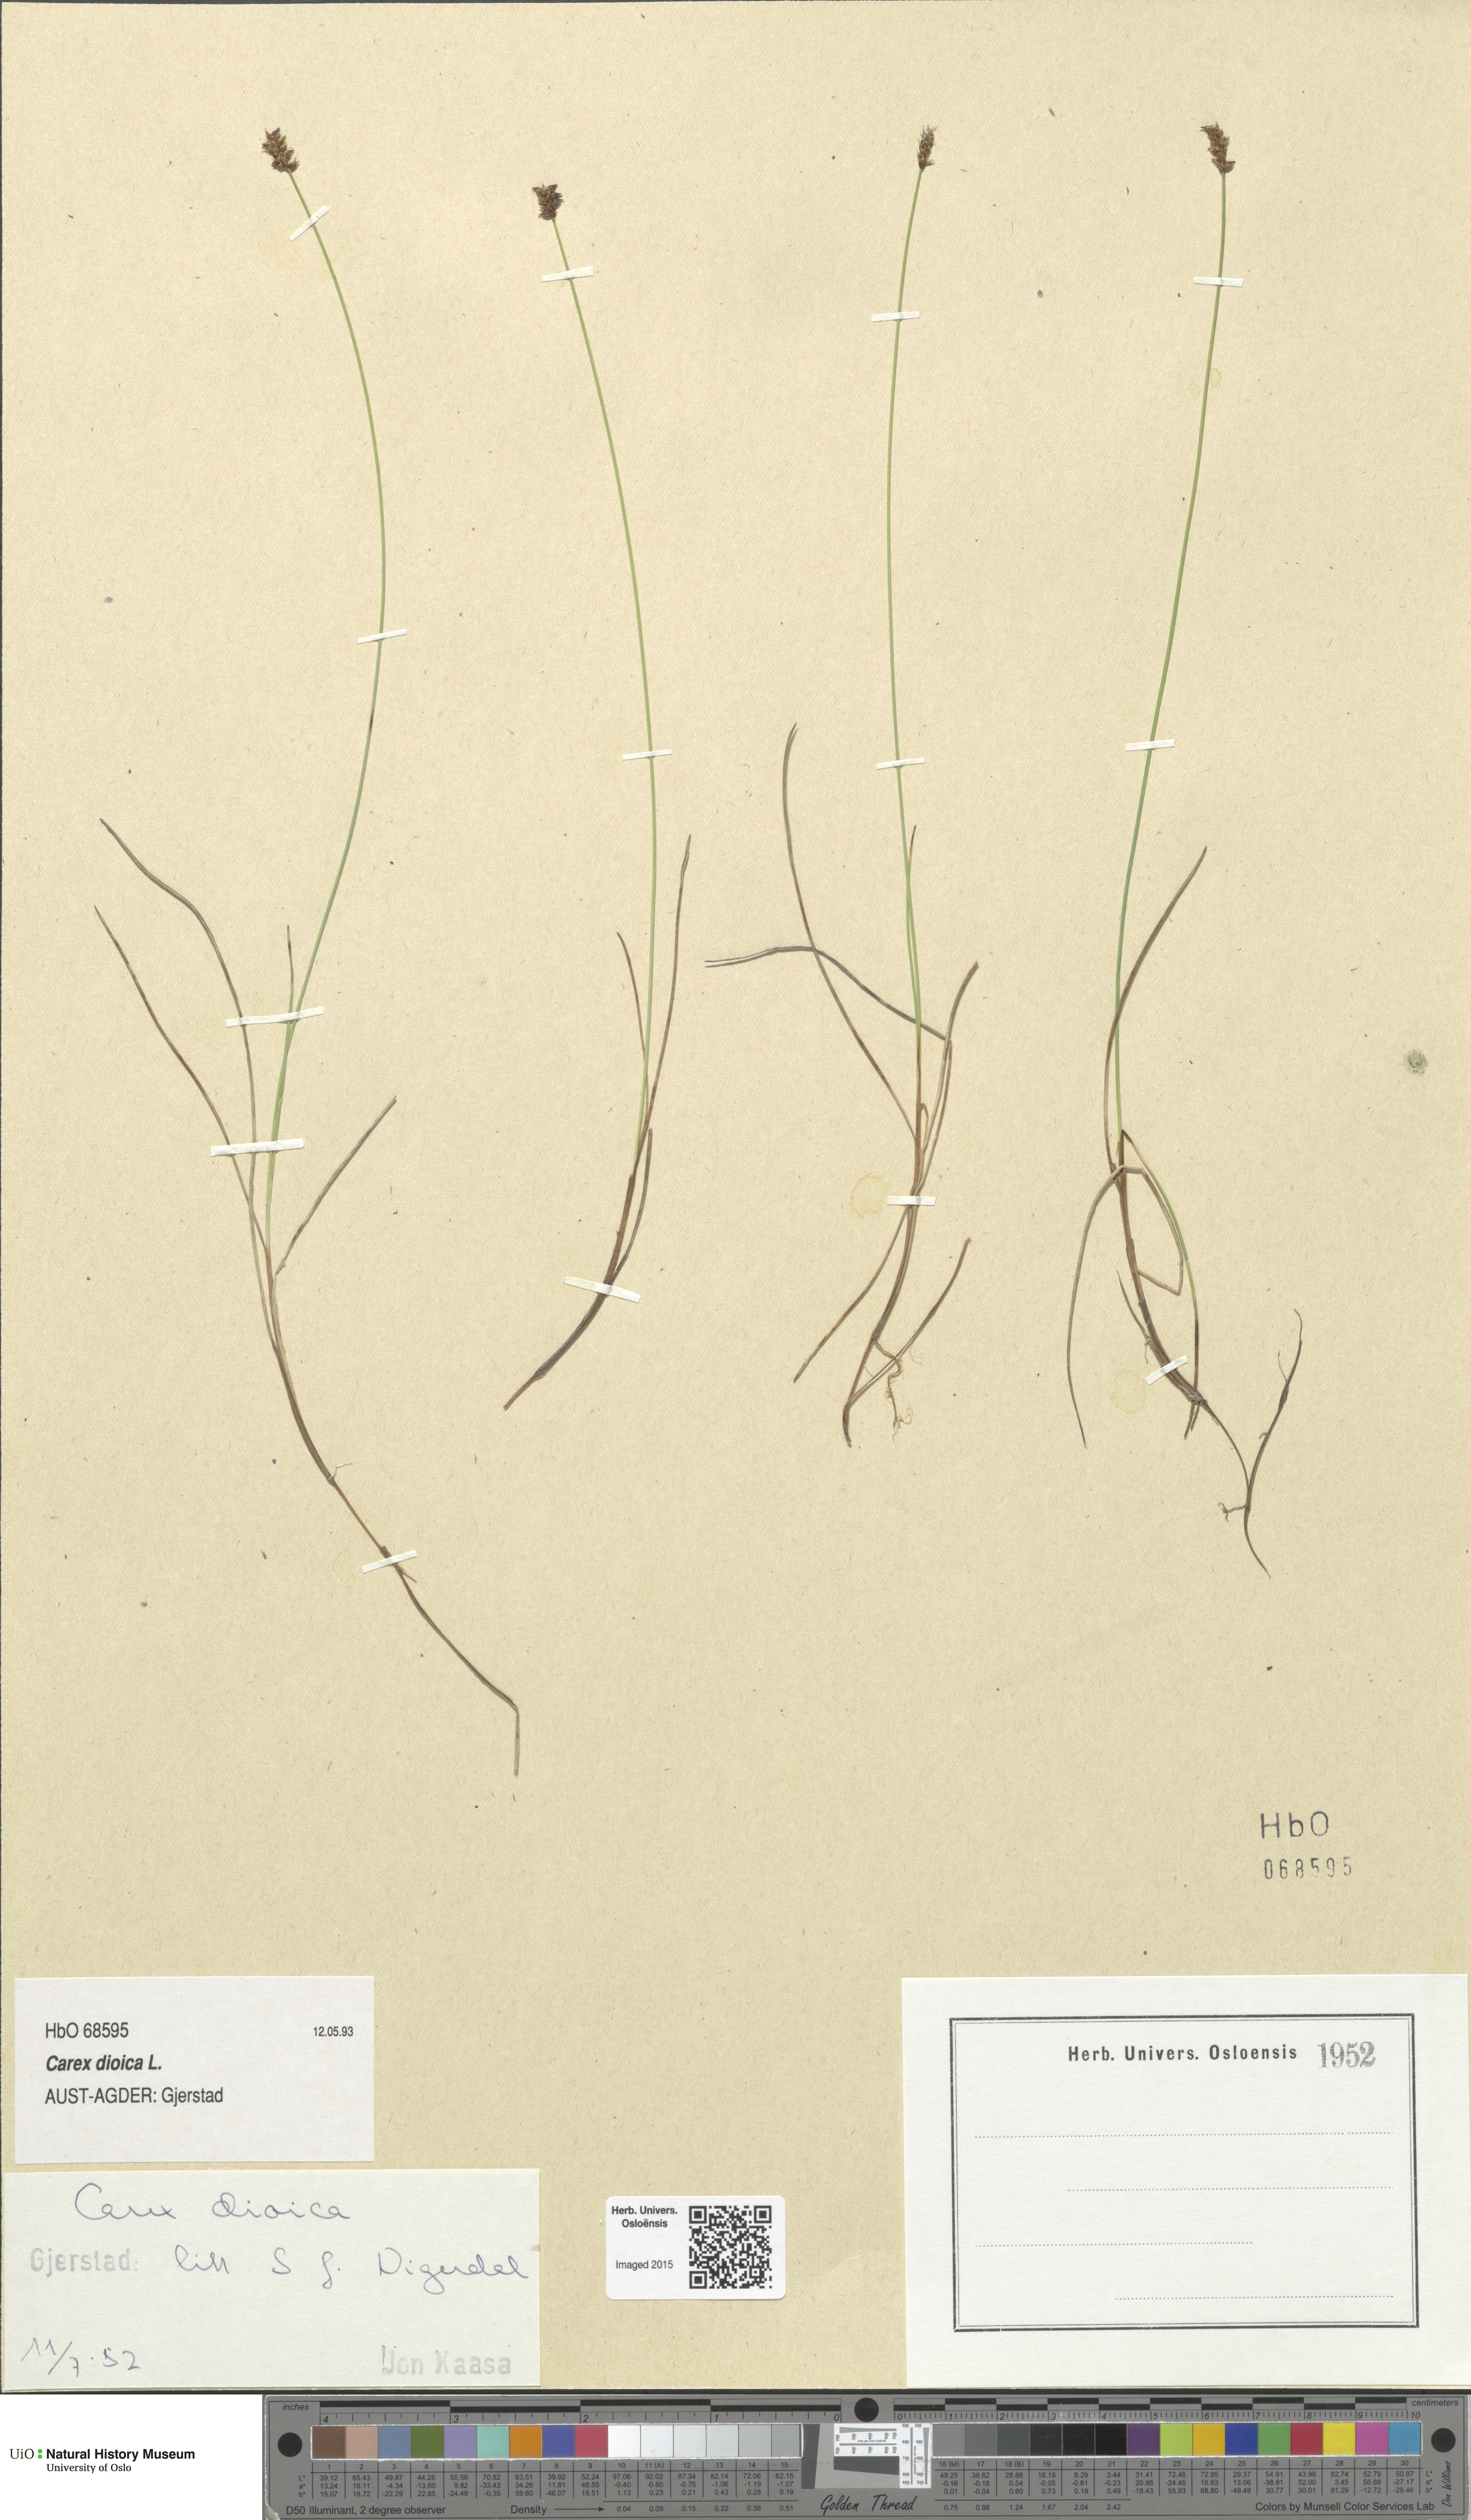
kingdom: Plantae
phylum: Tracheophyta
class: Liliopsida
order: Poales
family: Cyperaceae
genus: Carex
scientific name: Carex dioica
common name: Dioecious sedge
